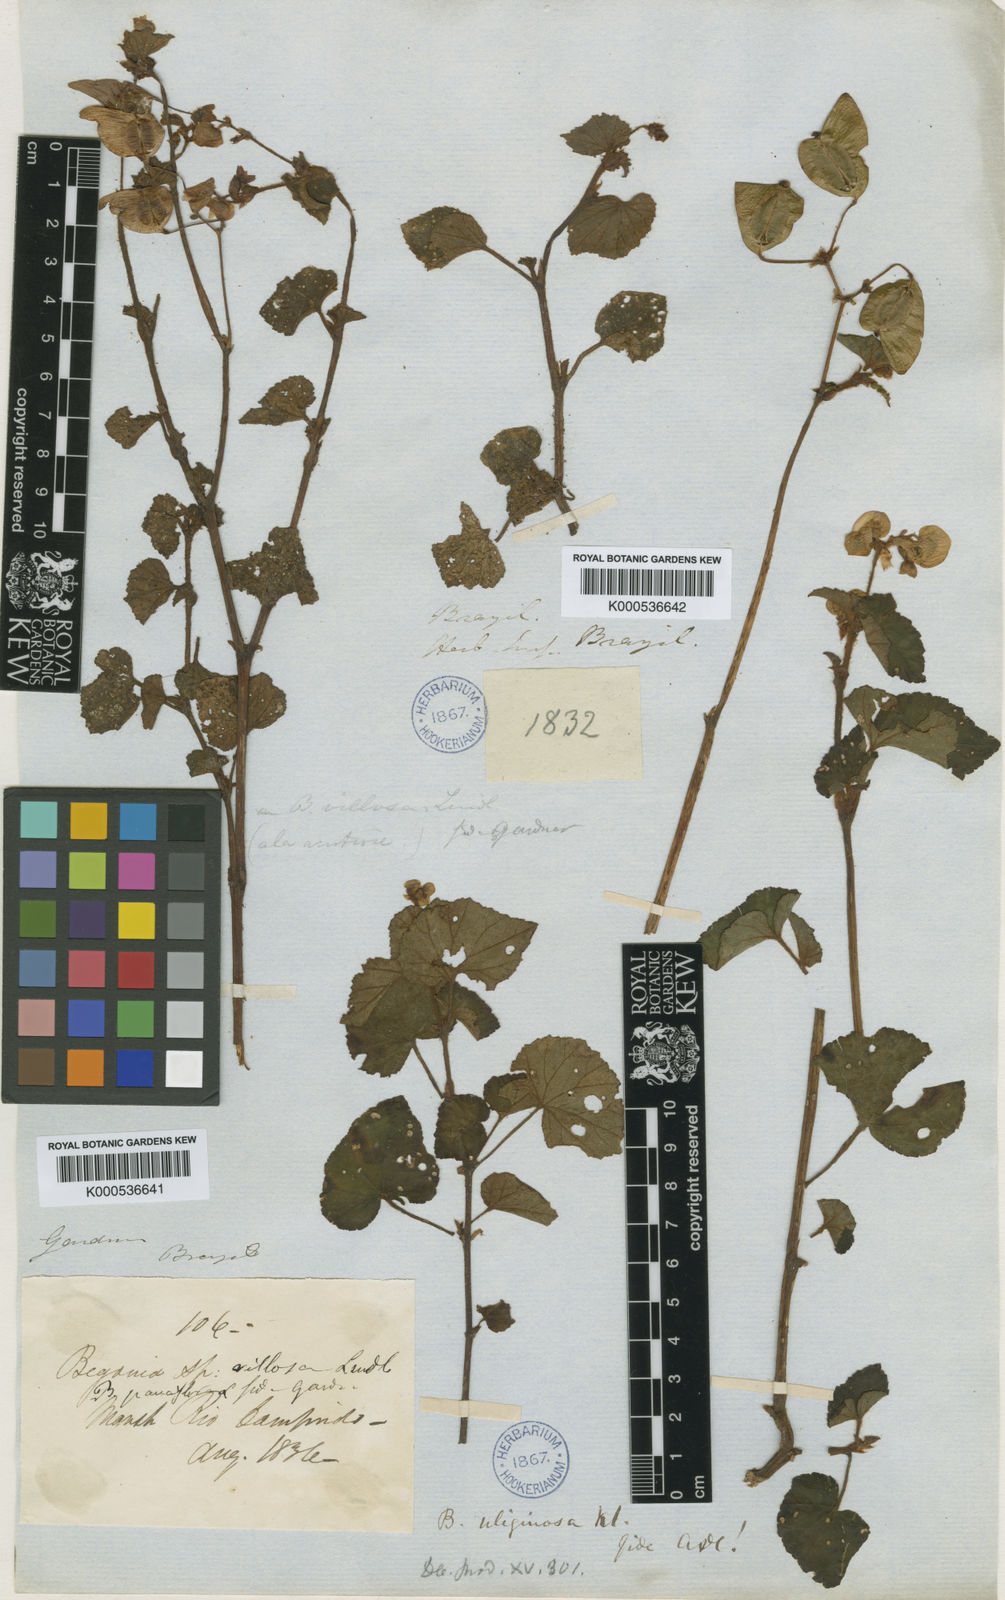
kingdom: Plantae
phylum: Tracheophyta
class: Magnoliopsida
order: Cucurbitales
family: Begoniaceae
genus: Begonia
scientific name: Begonia fischeri
